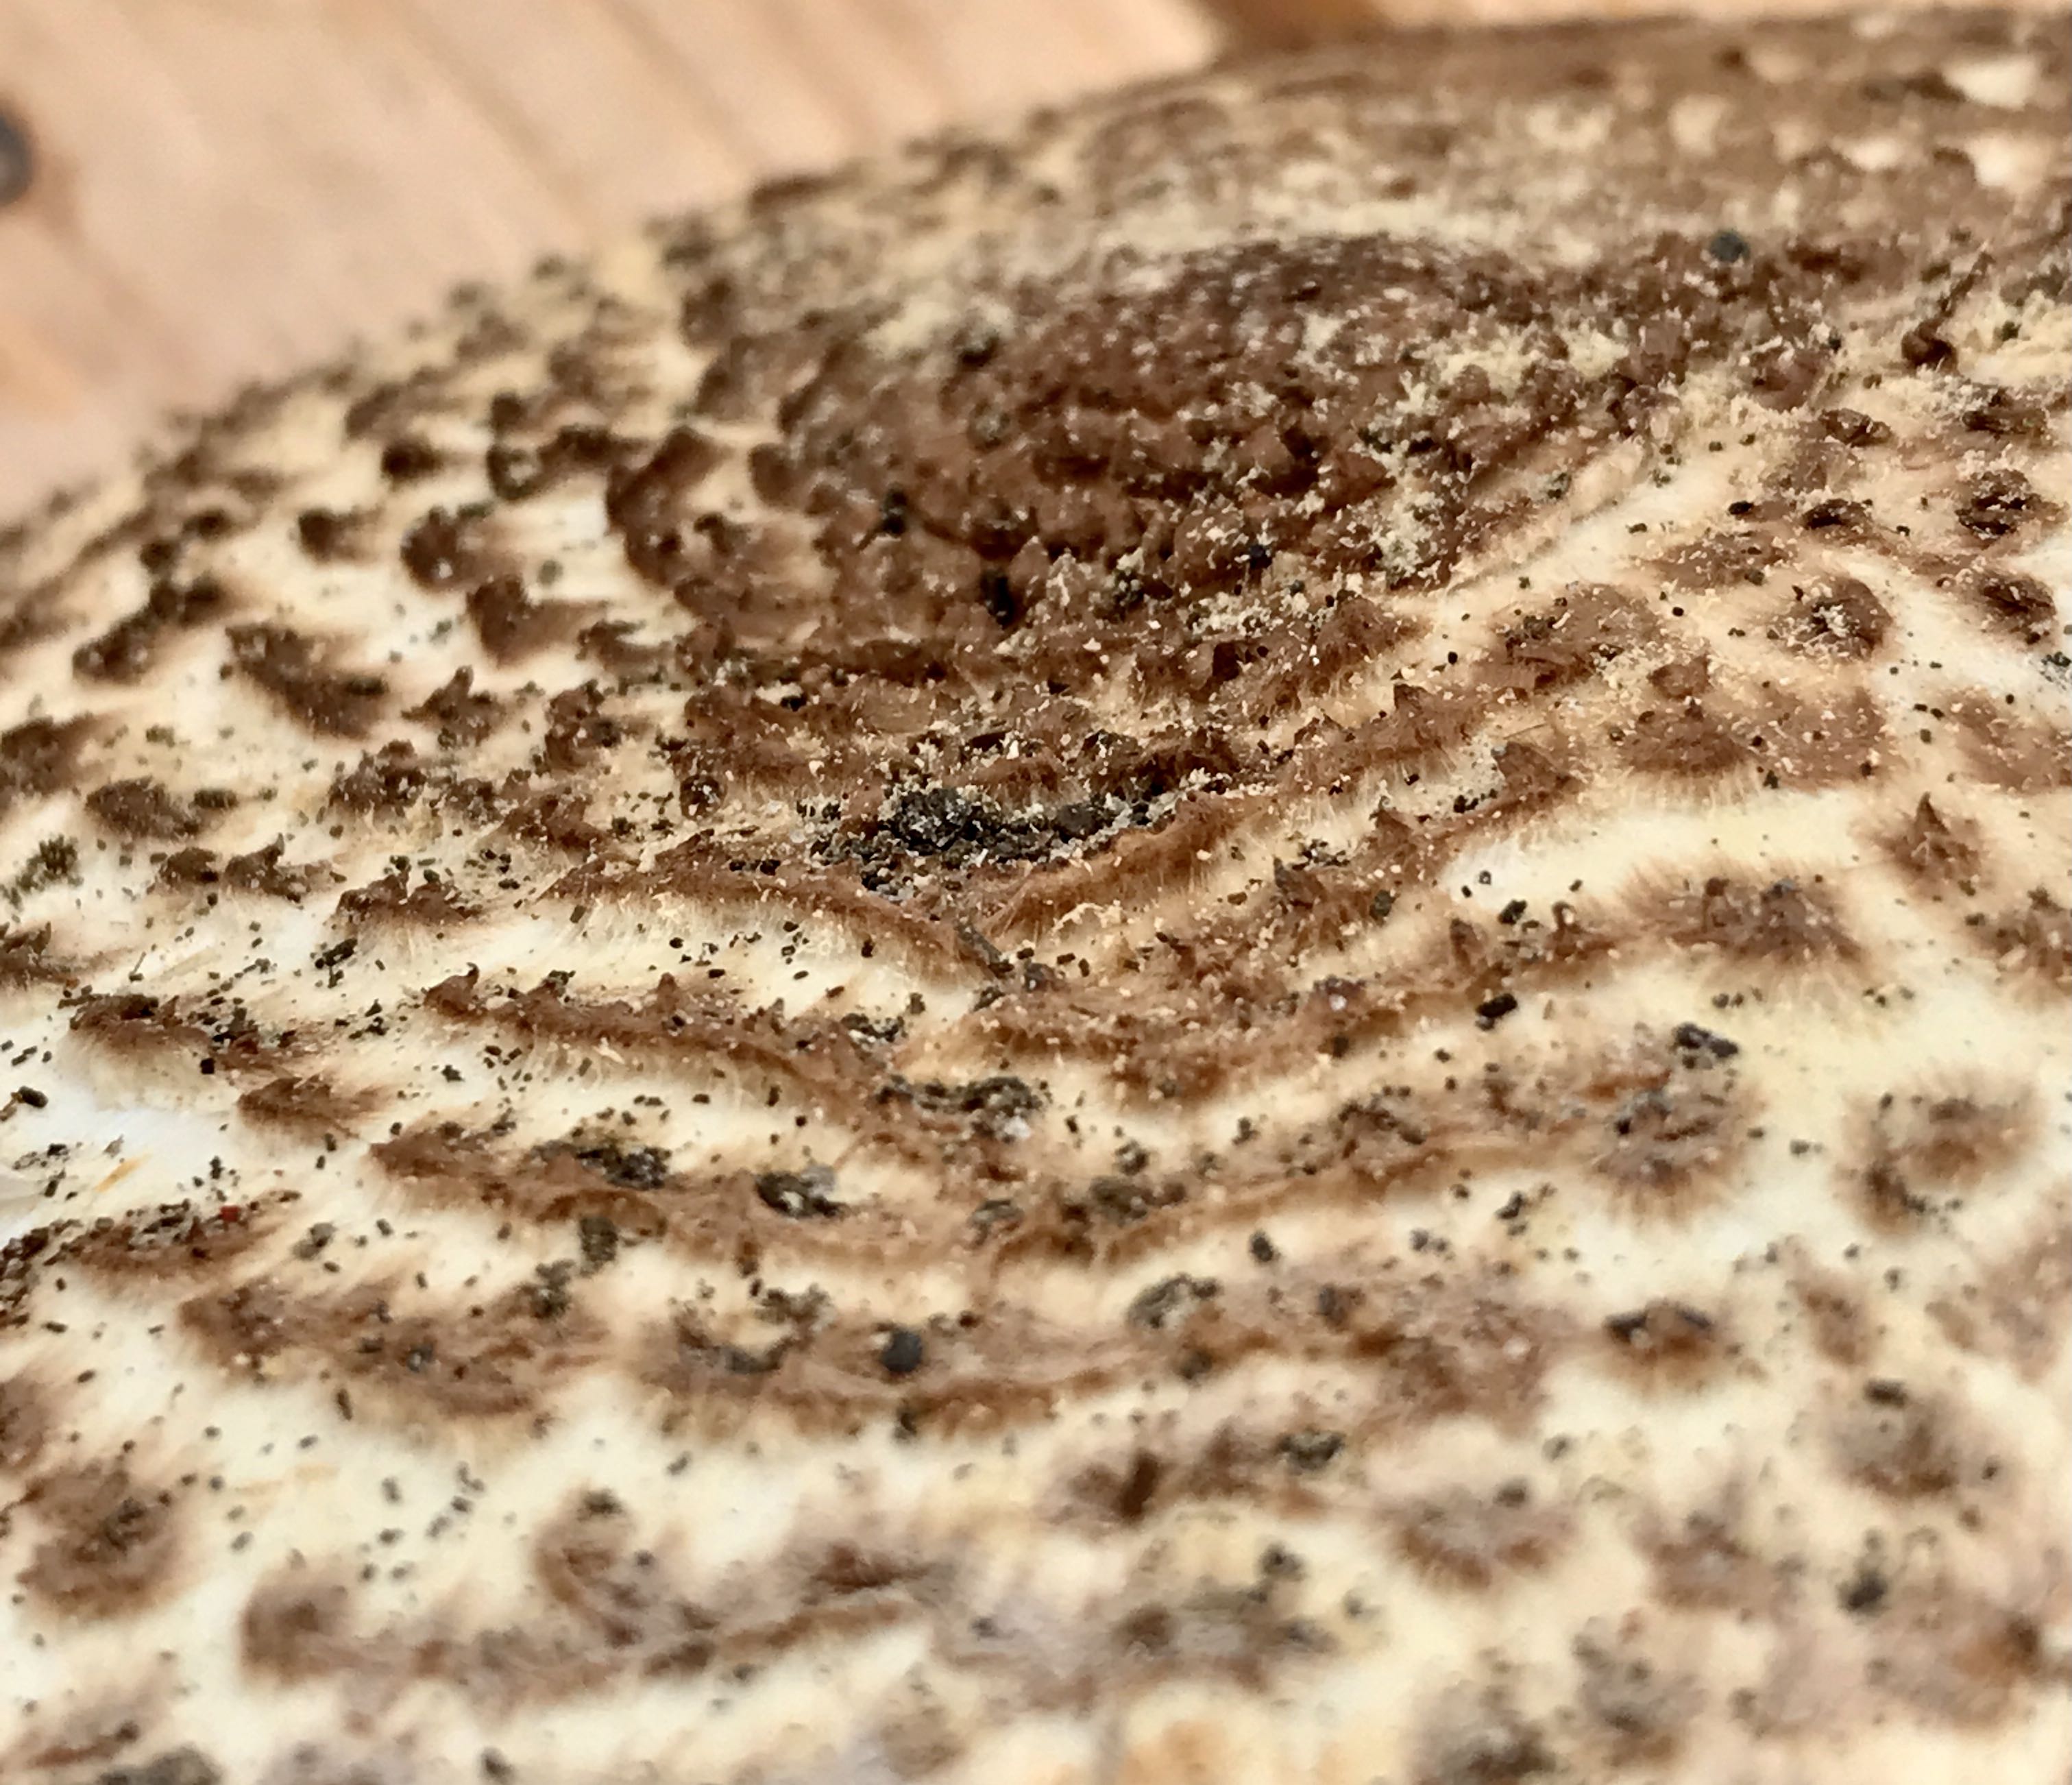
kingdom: Fungi
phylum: Basidiomycota
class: Agaricomycetes
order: Agaricales
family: Agaricaceae
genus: Echinoderma
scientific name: Echinoderma asperum
